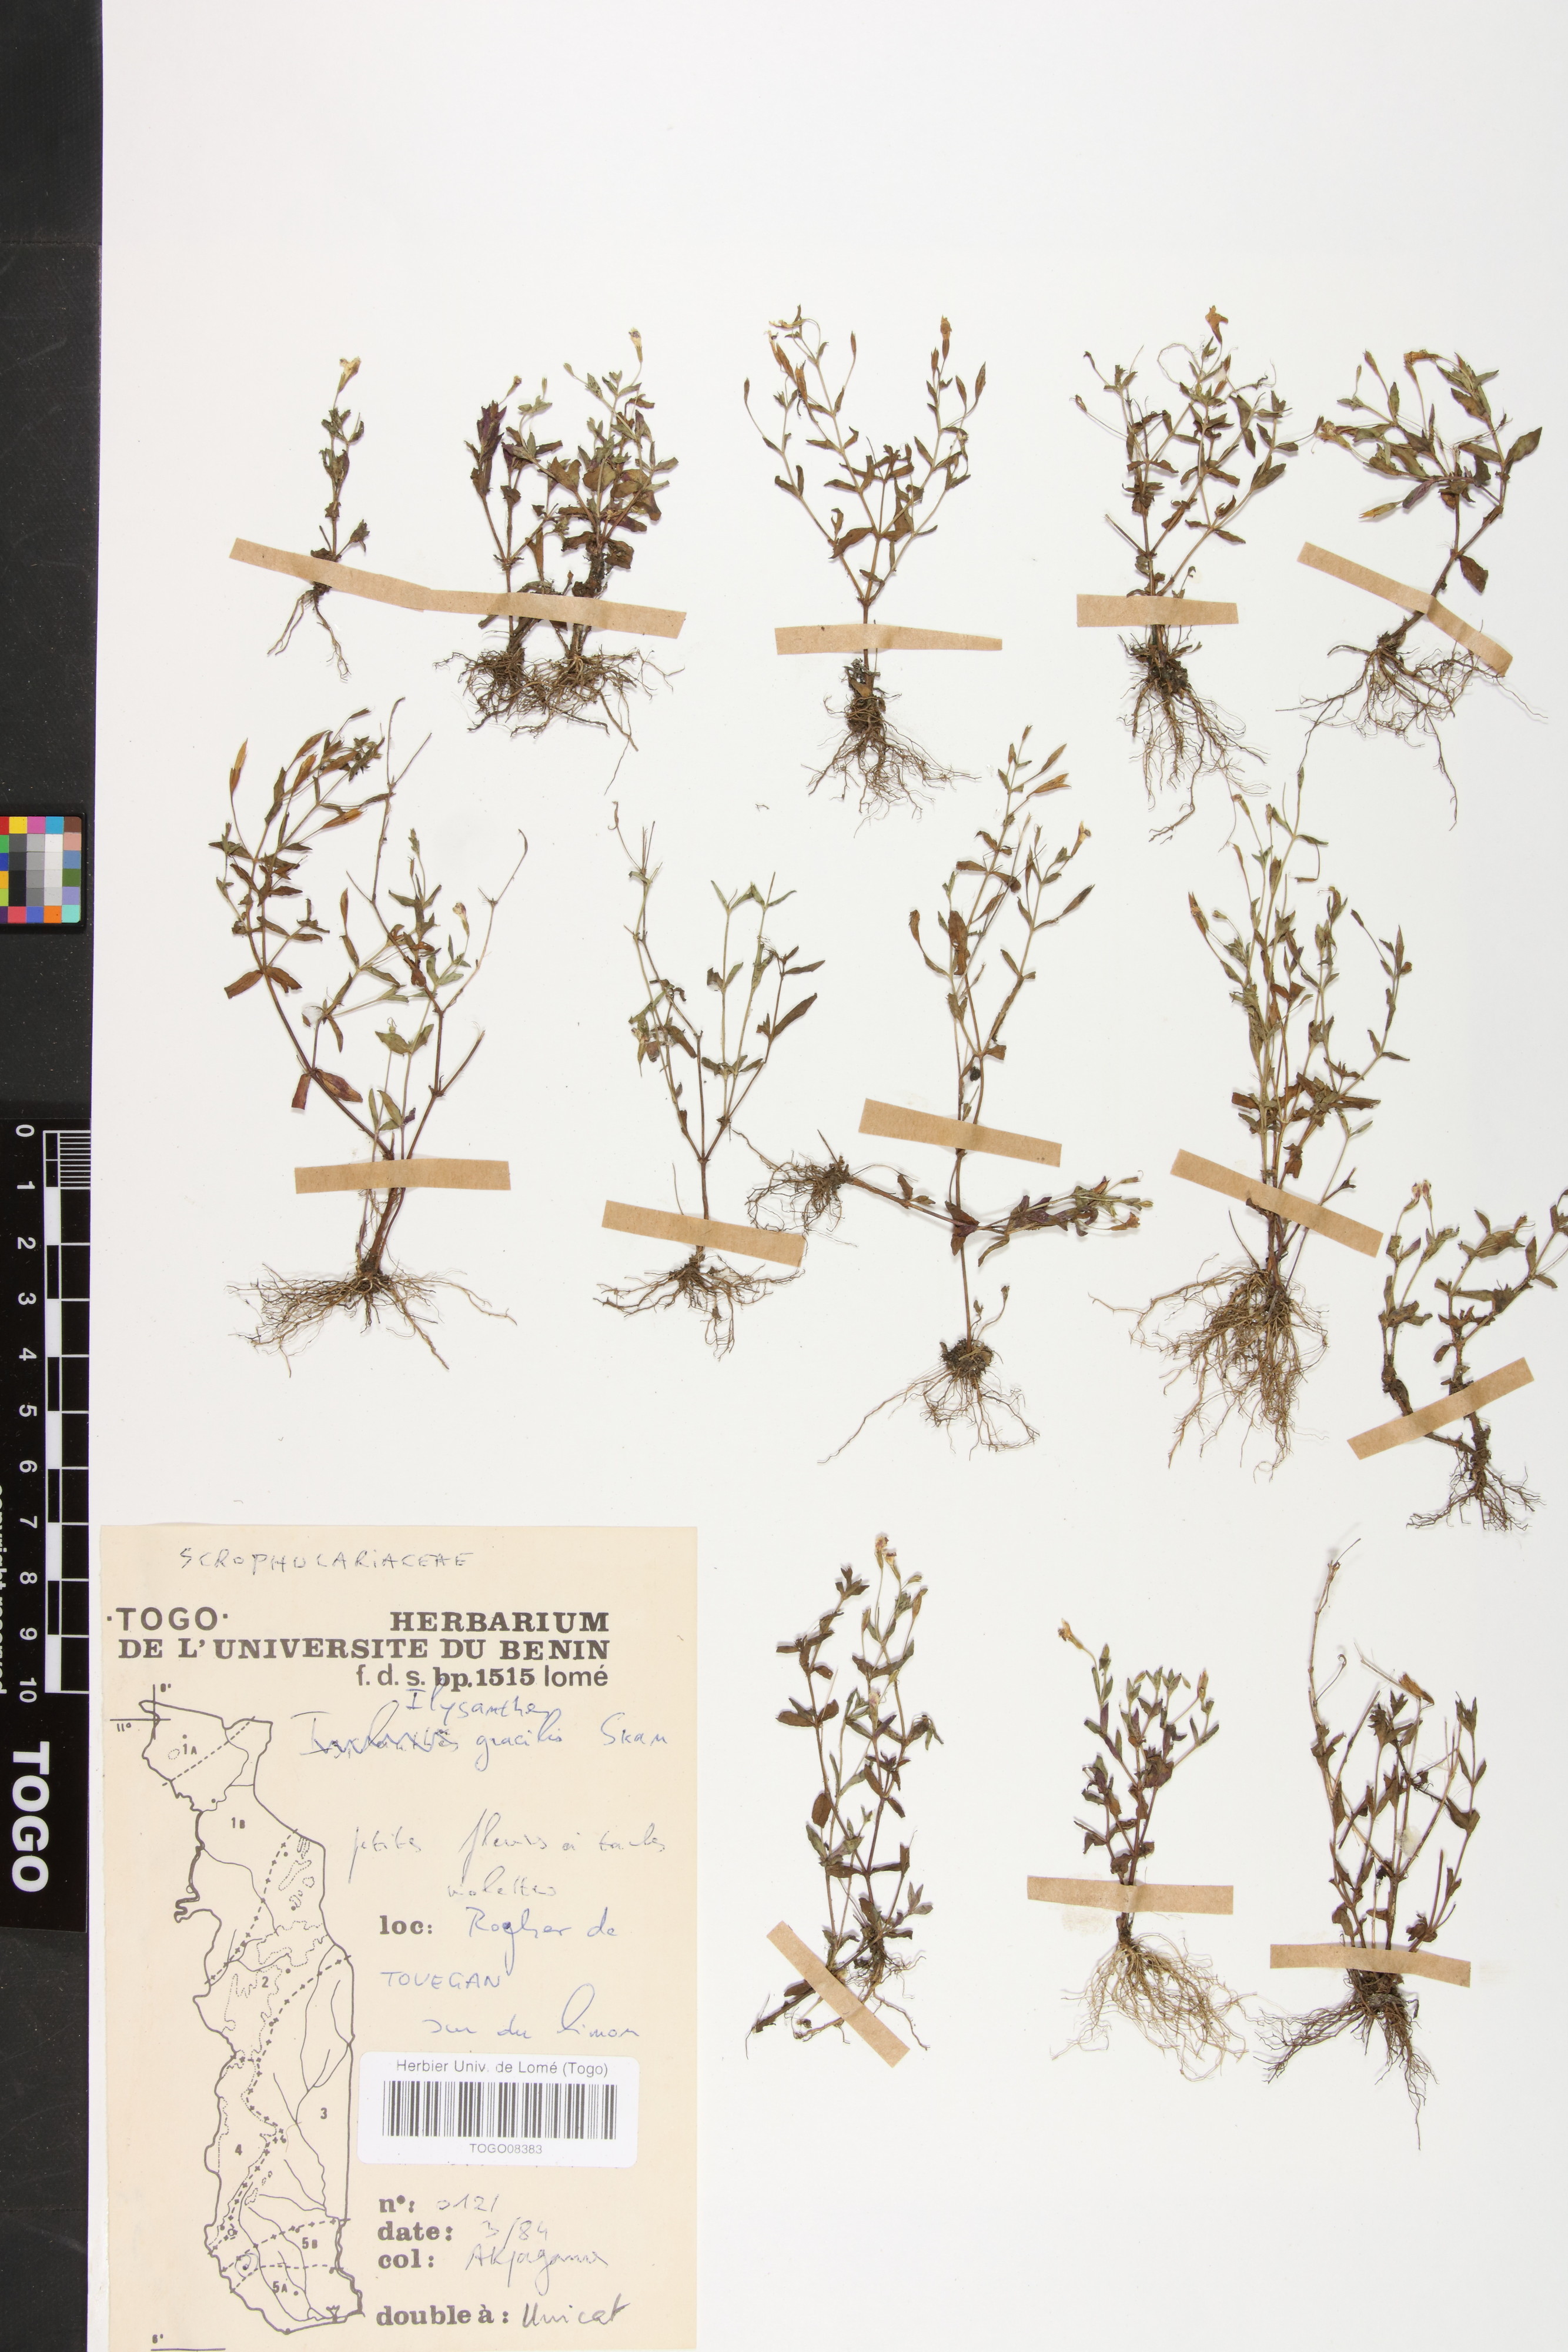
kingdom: Plantae
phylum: Tracheophyta
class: Magnoliopsida
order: Lamiales
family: Linderniaceae
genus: Linderniella
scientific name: Linderniella gracilis
